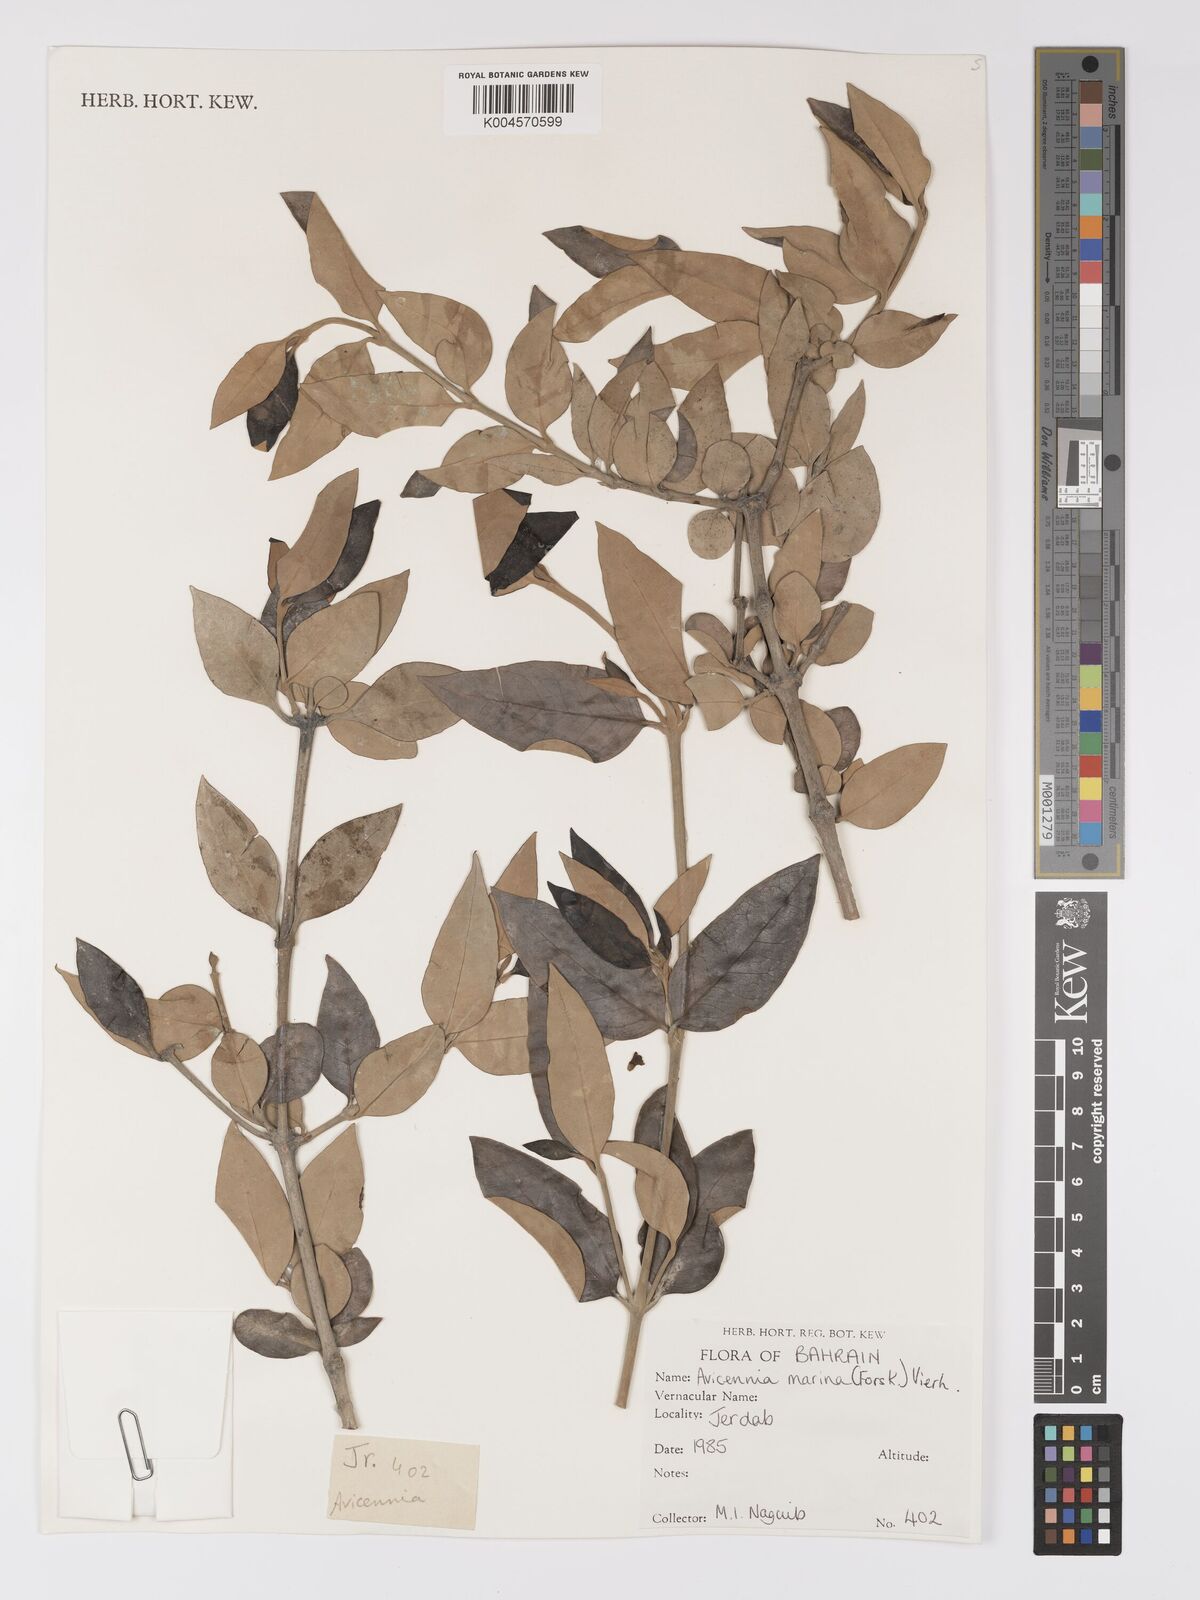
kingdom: Plantae
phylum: Tracheophyta
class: Magnoliopsida
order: Lamiales
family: Acanthaceae
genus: Avicennia
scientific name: Avicennia
